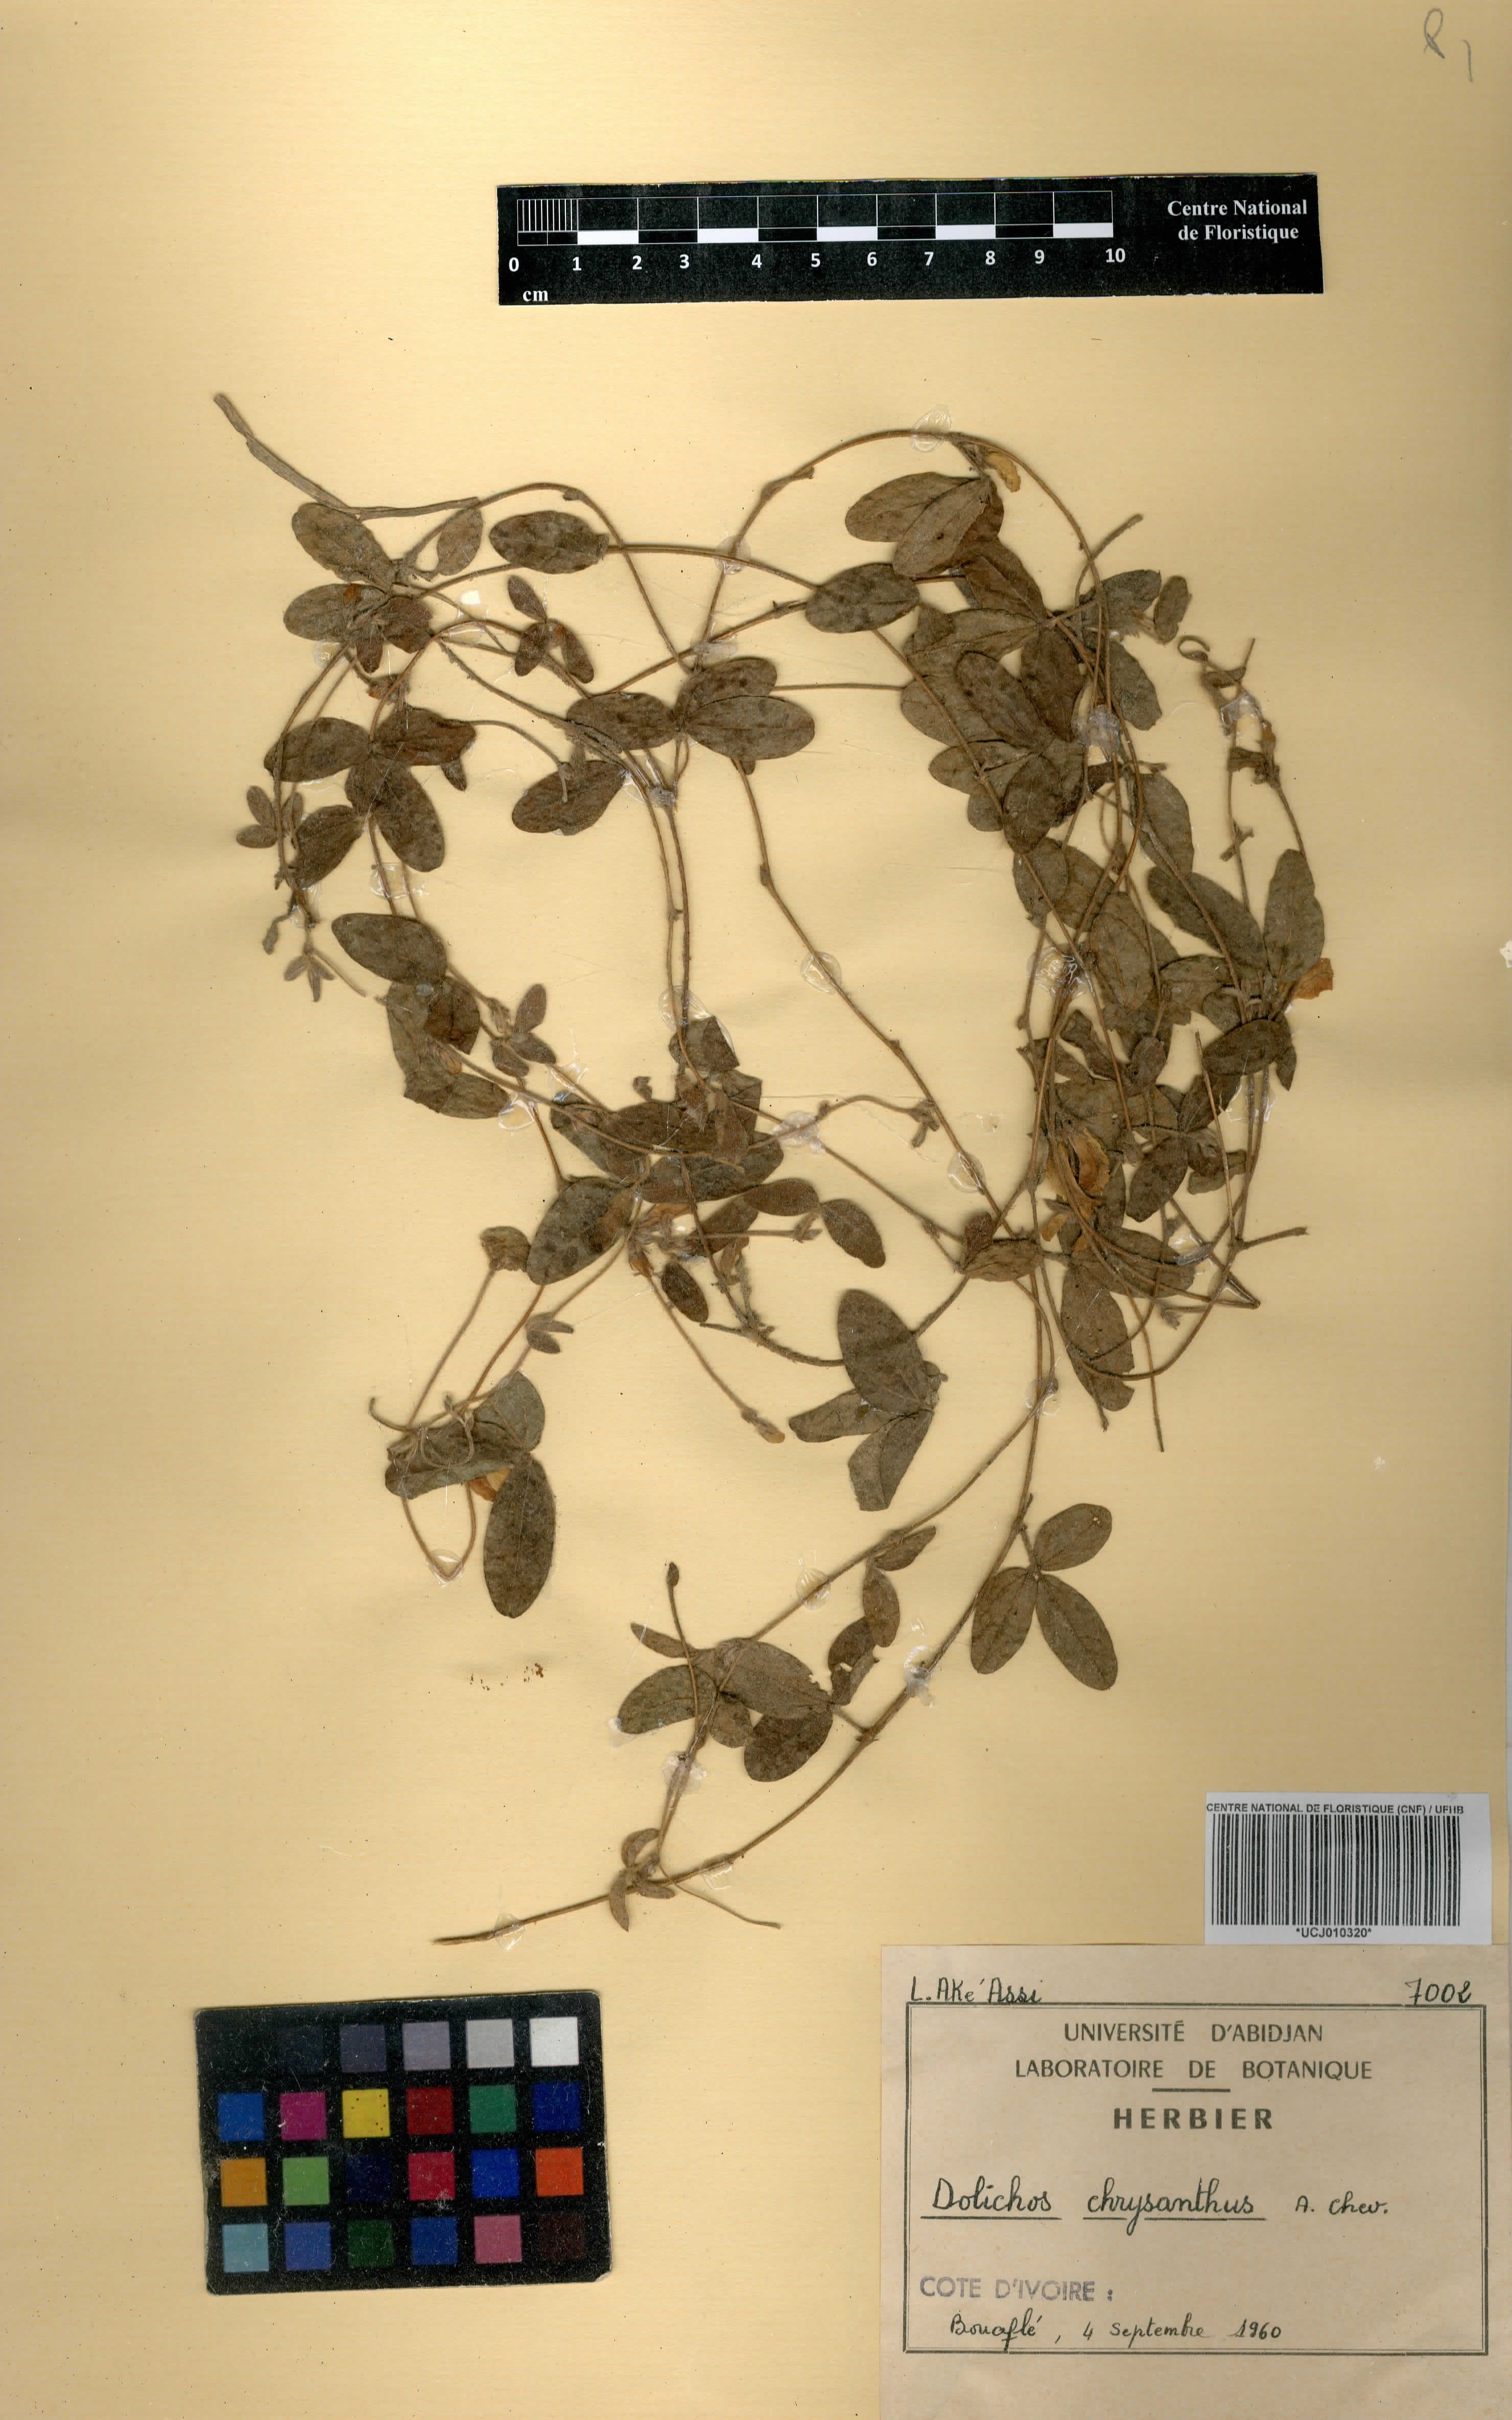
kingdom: Plantae
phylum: Tracheophyta
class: Magnoliopsida
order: Fabales
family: Fabaceae
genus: Macrotyloma
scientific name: Macrotyloma biflorum
